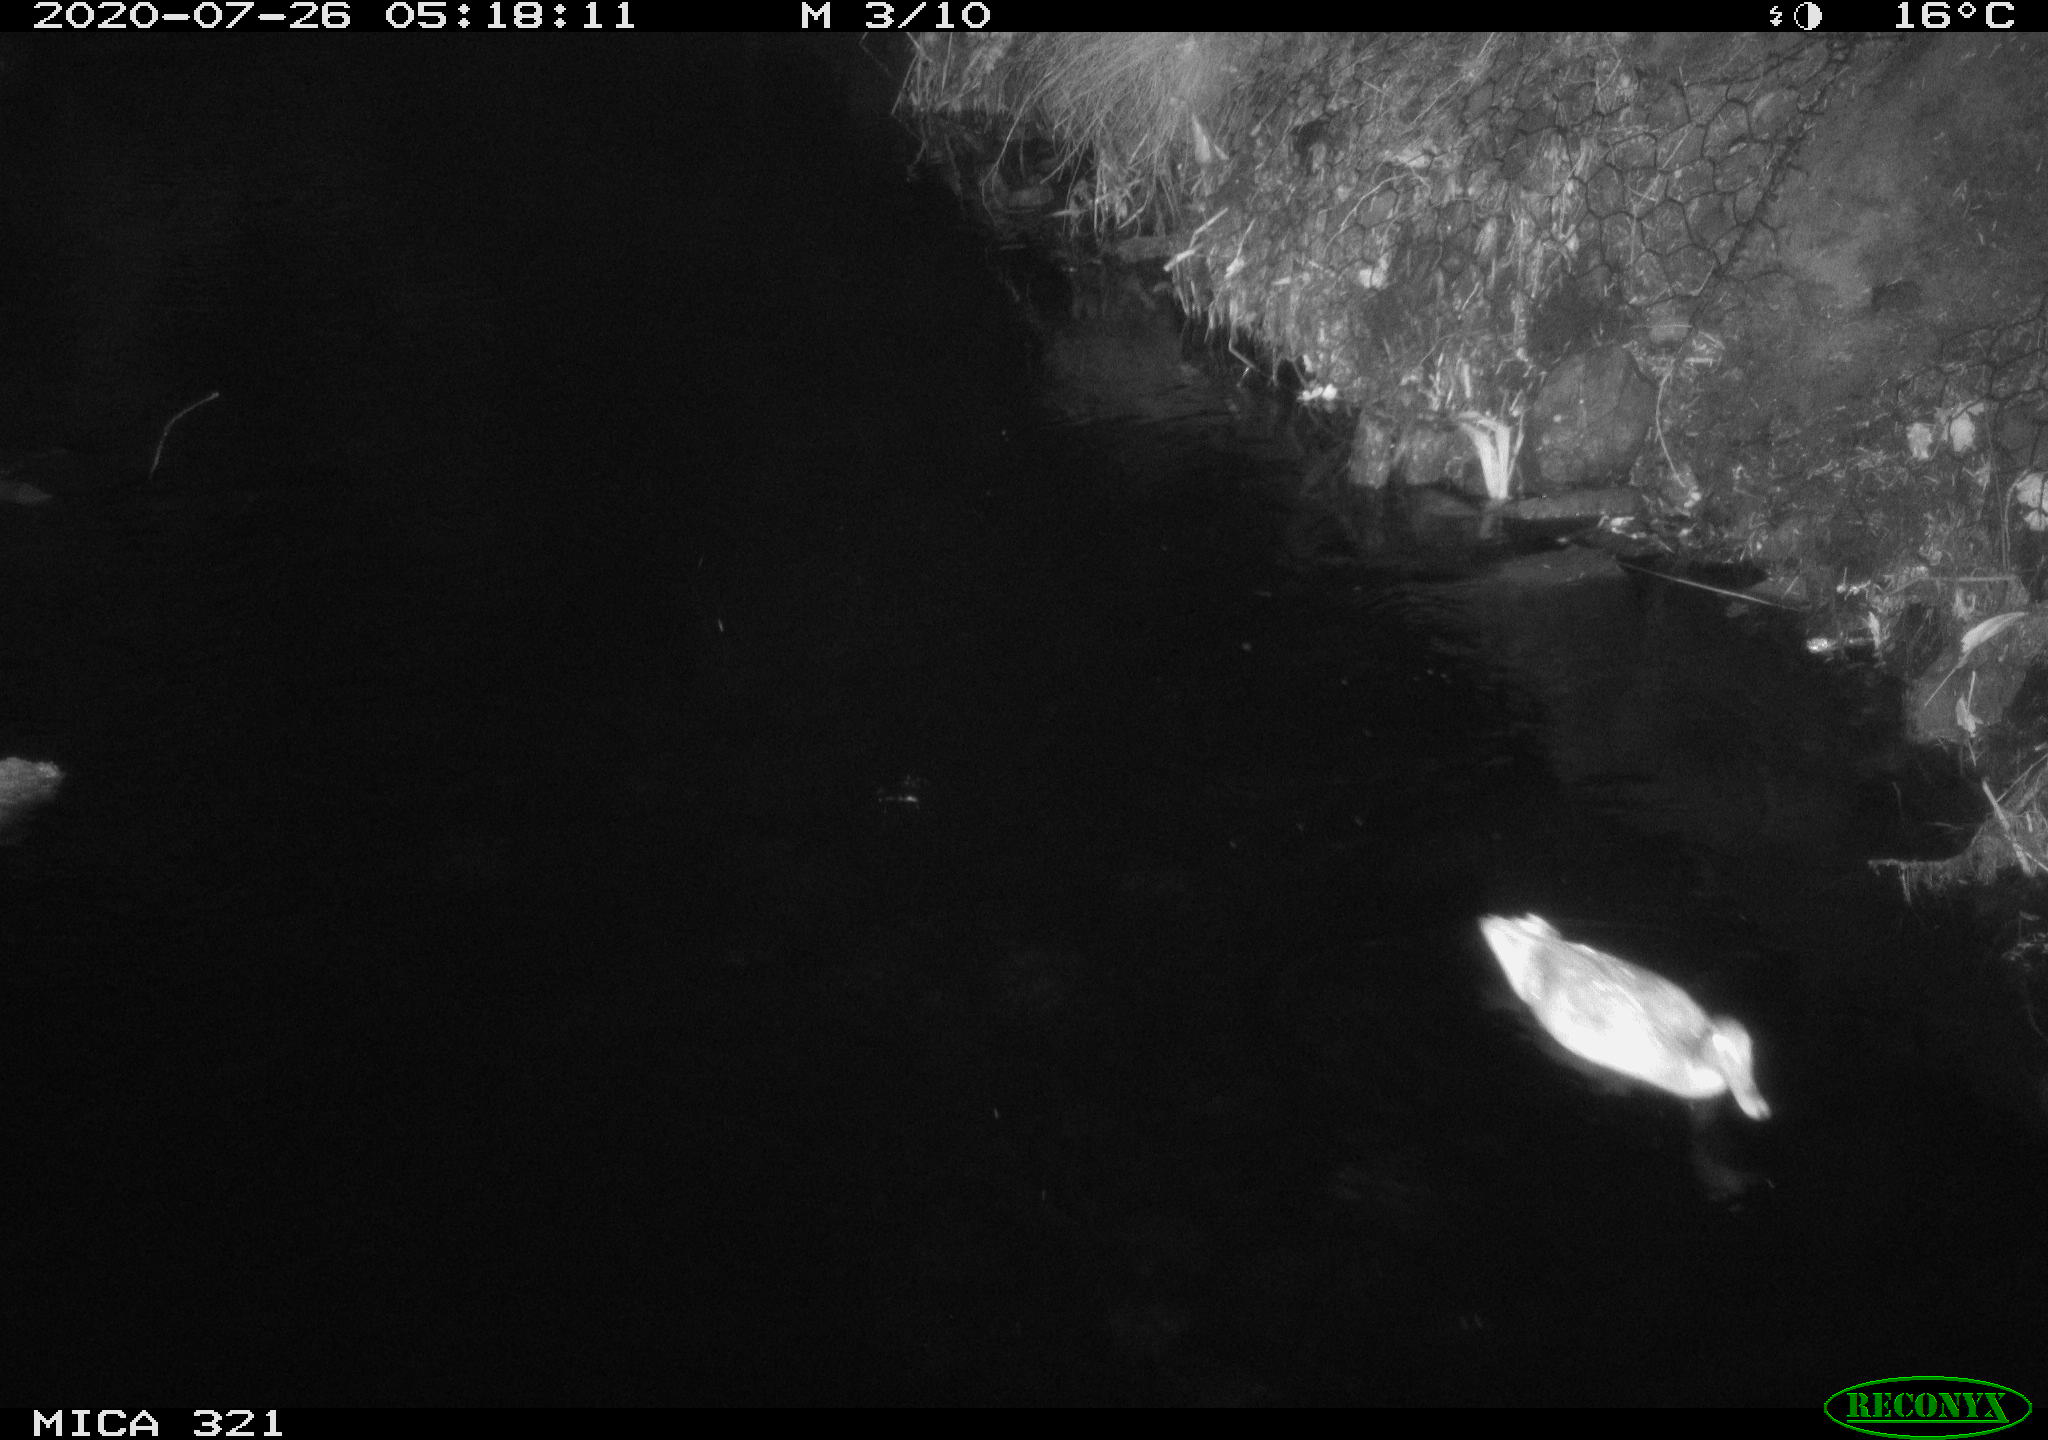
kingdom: Animalia
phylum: Chordata
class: Aves
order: Anseriformes
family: Anatidae
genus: Anas
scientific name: Anas platyrhynchos
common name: Mallard
